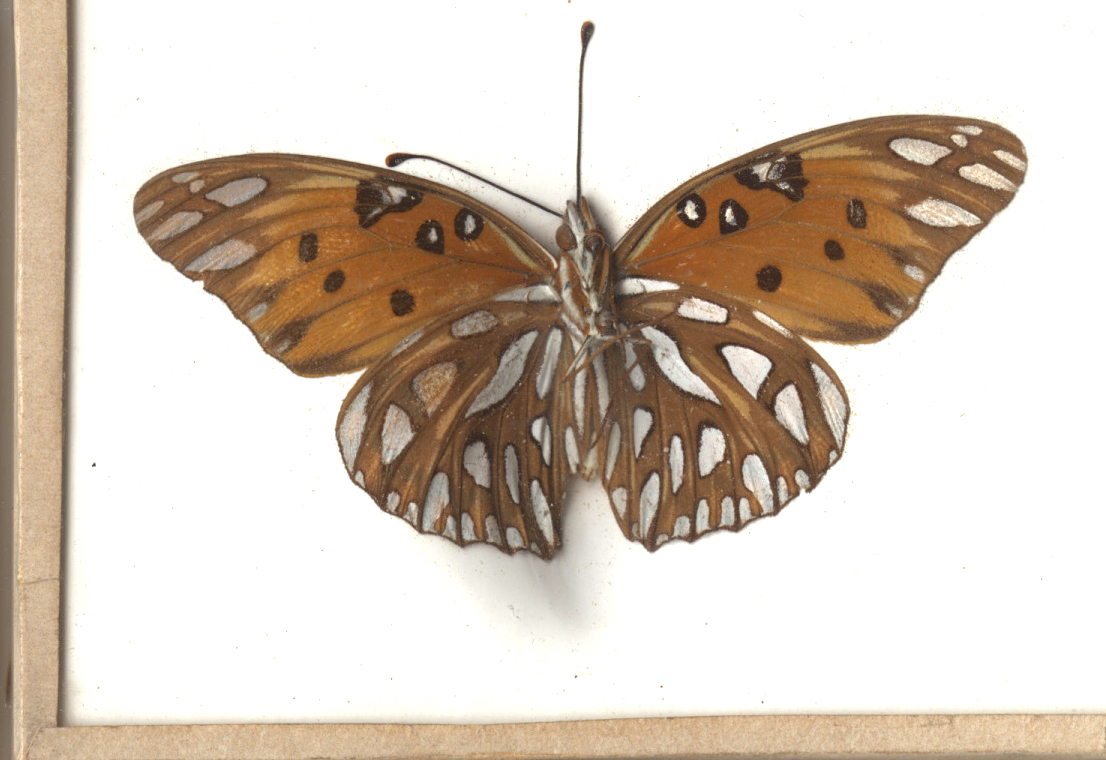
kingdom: Animalia
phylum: Arthropoda
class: Insecta
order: Lepidoptera
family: Nymphalidae
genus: Dione
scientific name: Dione vanillae
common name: Gulf Fritillary
